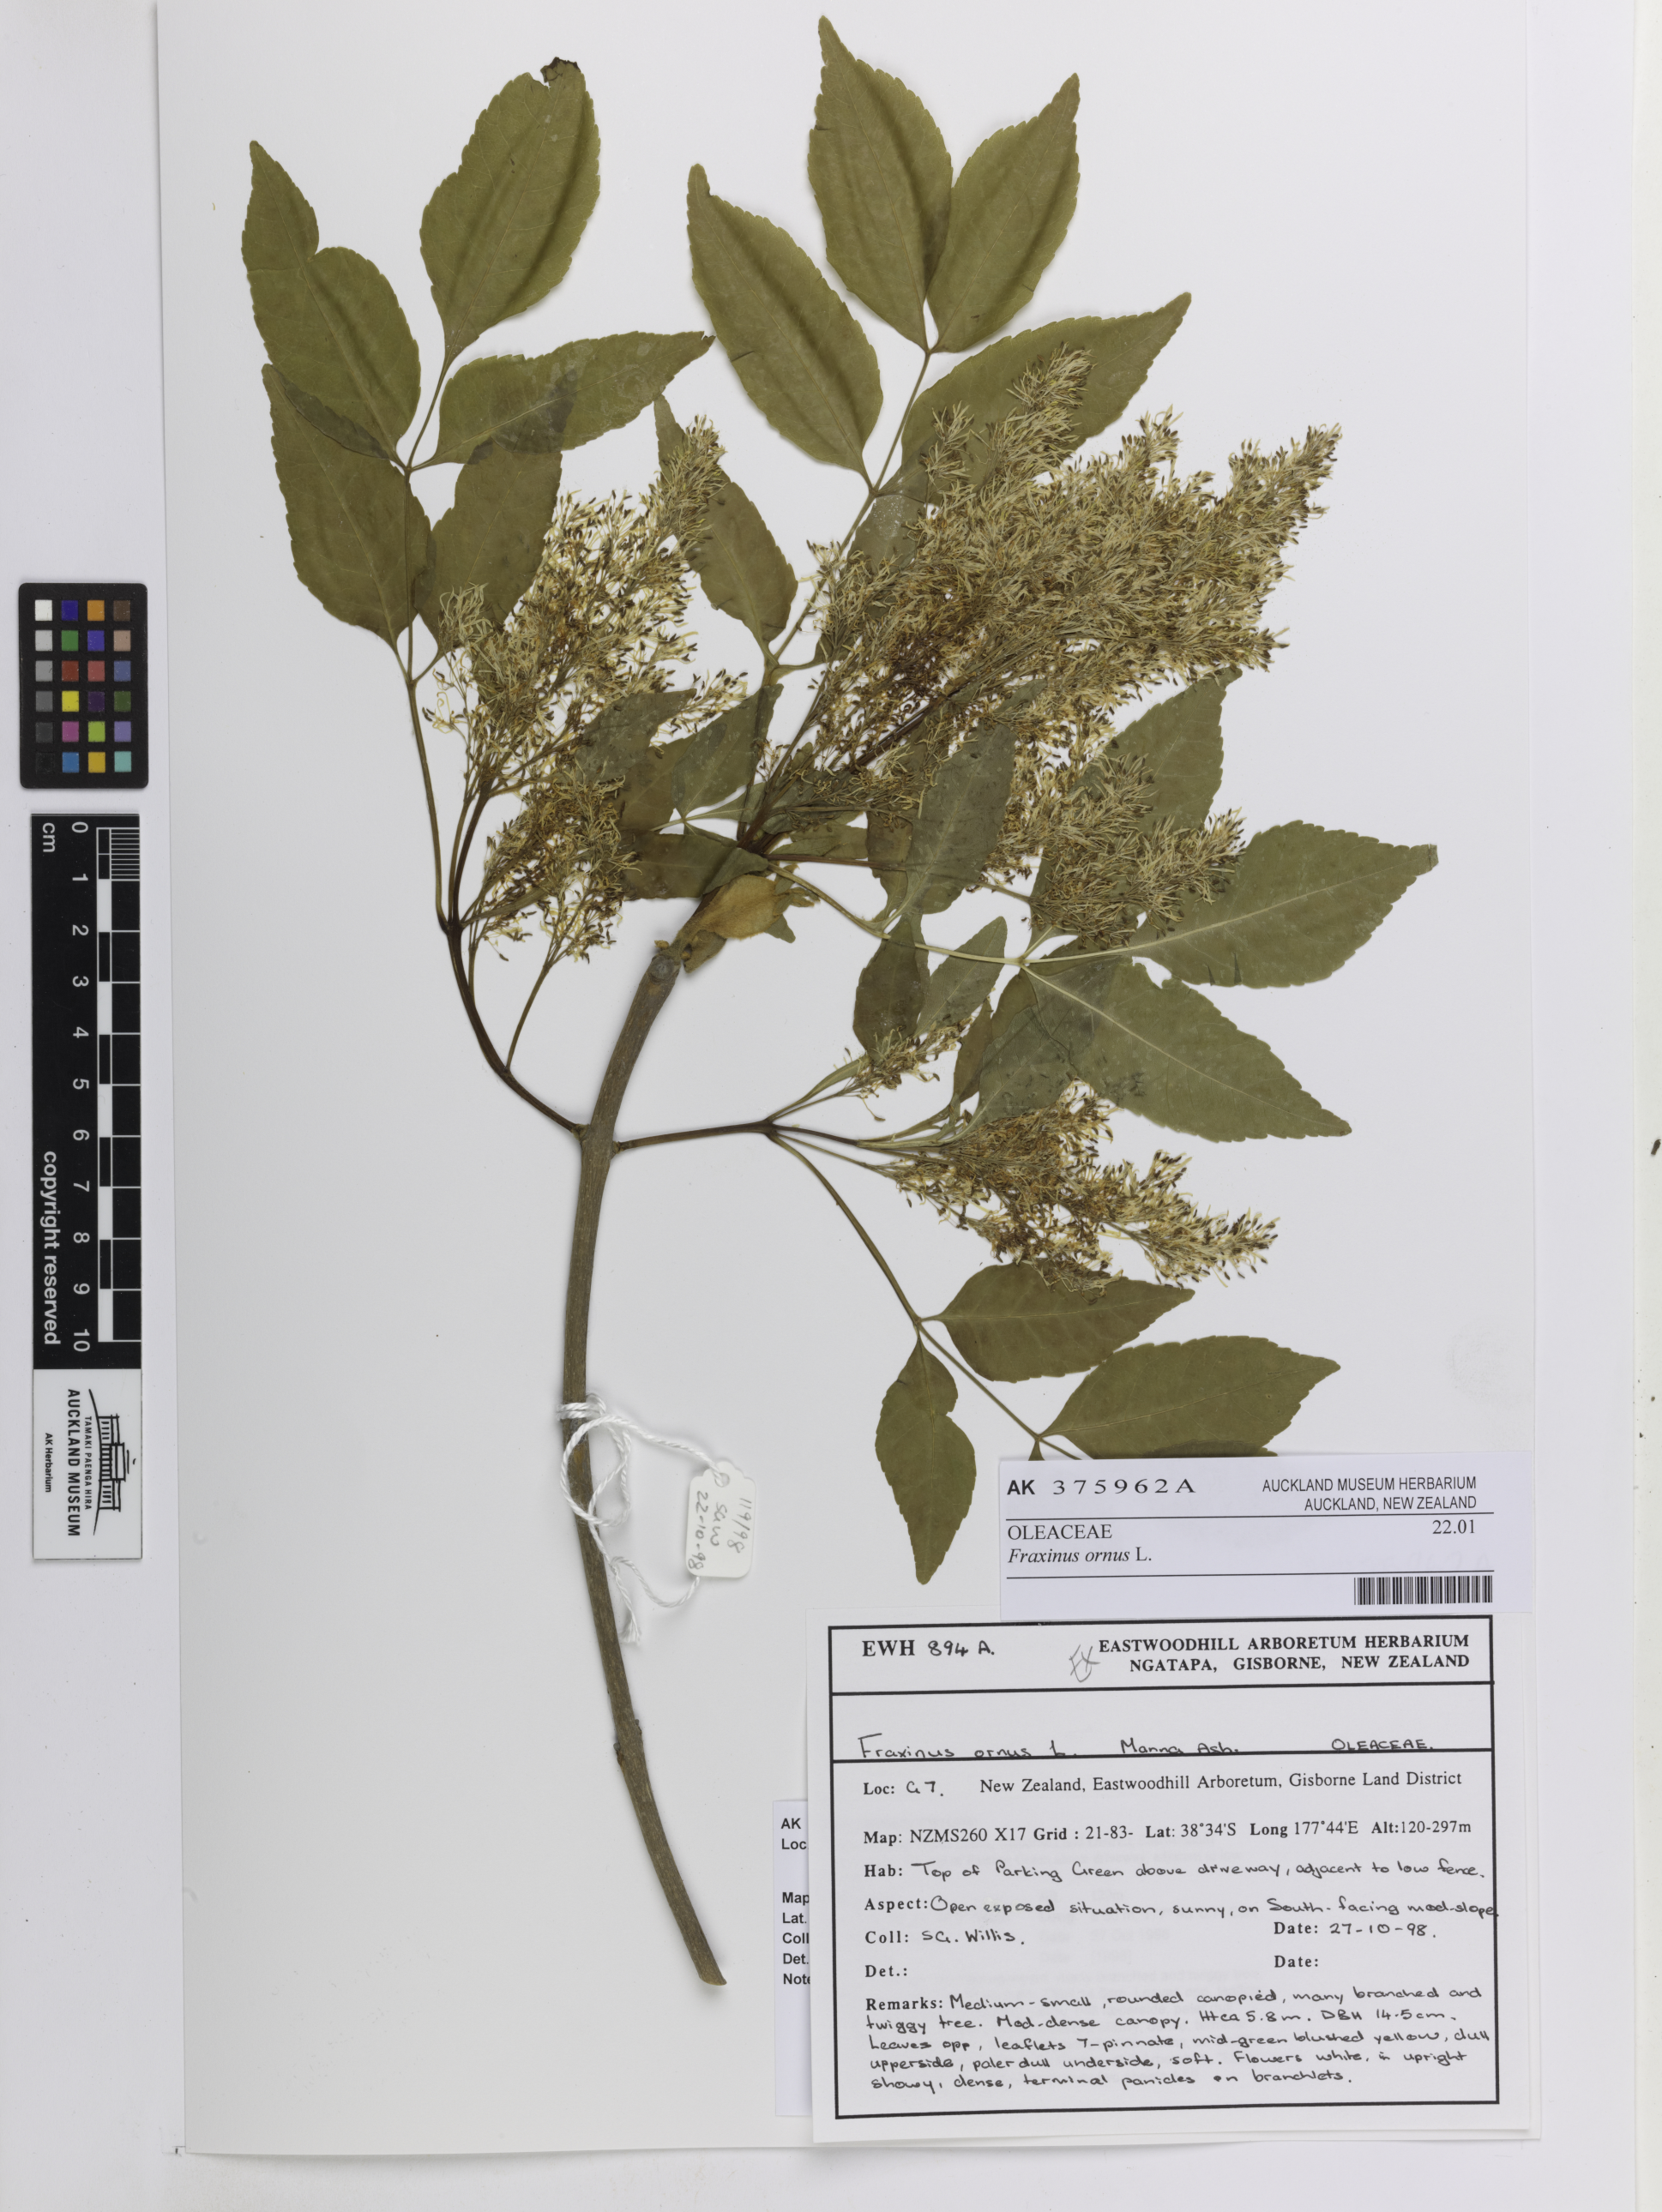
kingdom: Plantae
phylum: Tracheophyta
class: Magnoliopsida
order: Lamiales
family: Oleaceae
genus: Fraxinus
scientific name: Fraxinus ornus
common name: Manna ash
